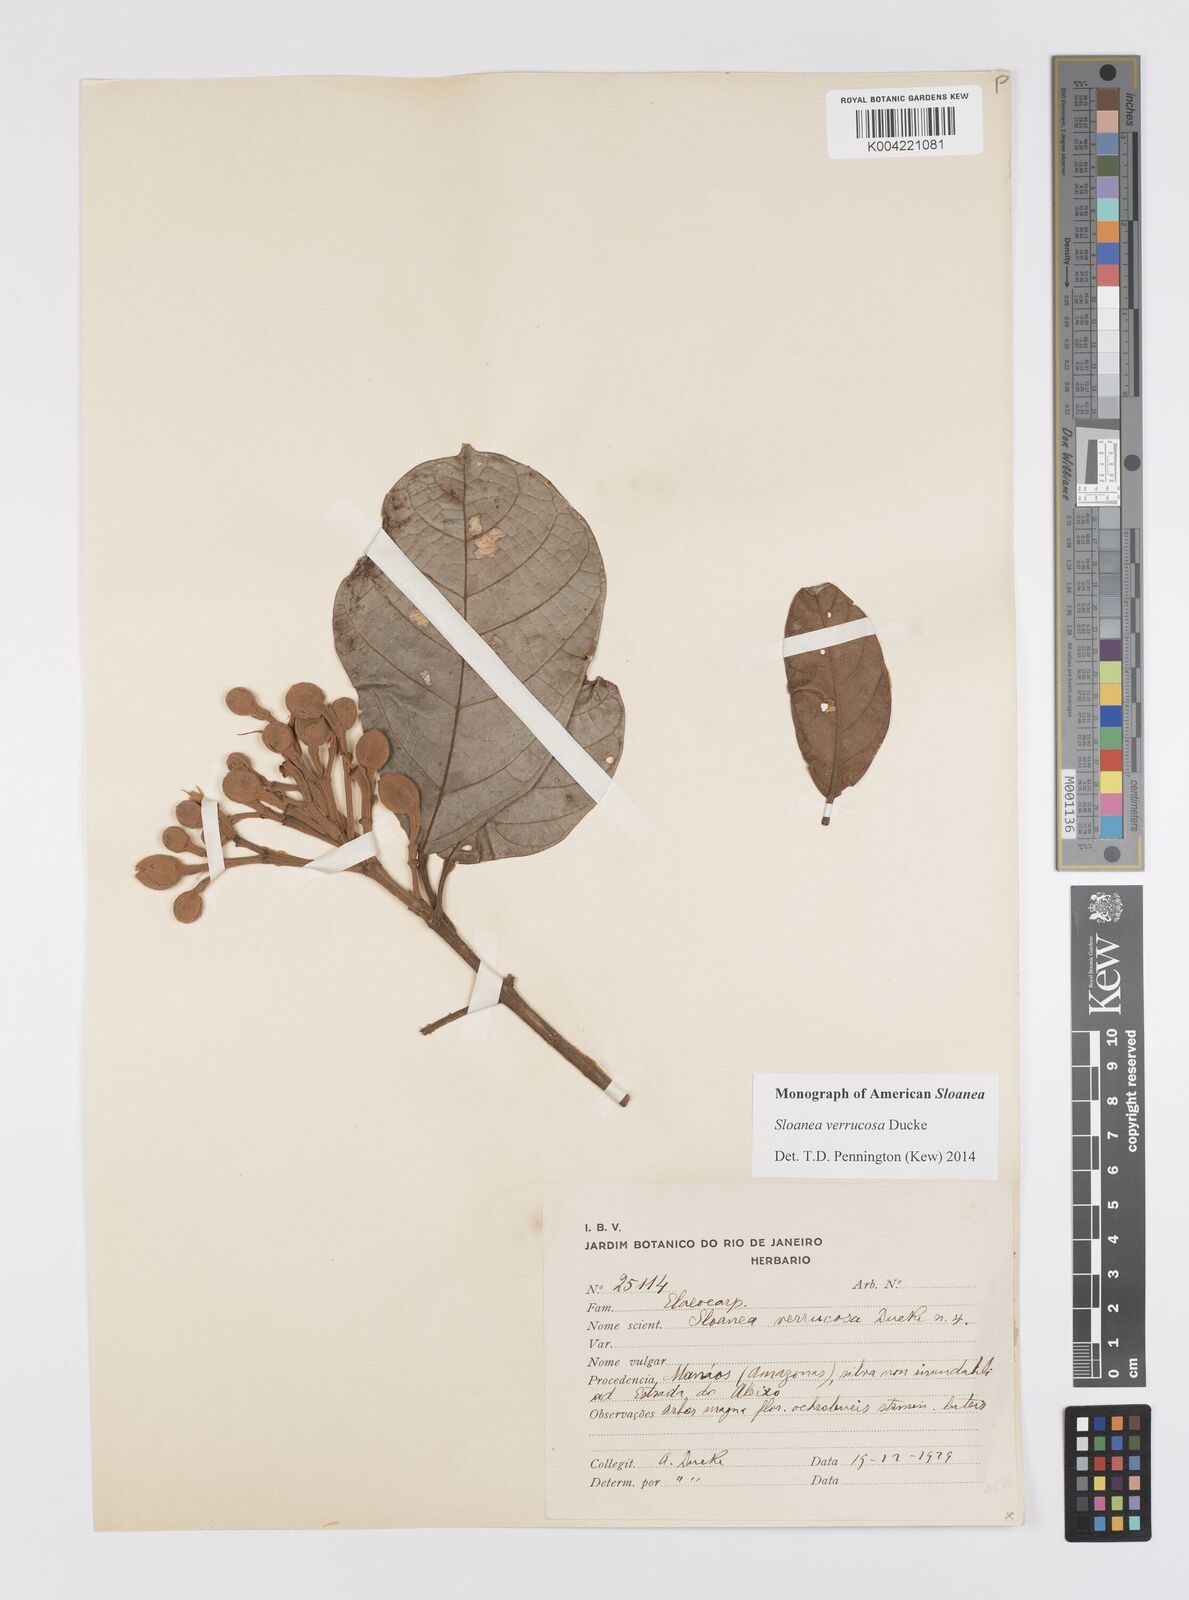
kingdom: Plantae
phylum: Tracheophyta
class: Magnoliopsida
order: Oxalidales
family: Elaeocarpaceae
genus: Sloanea
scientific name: Sloanea schomburgkii
